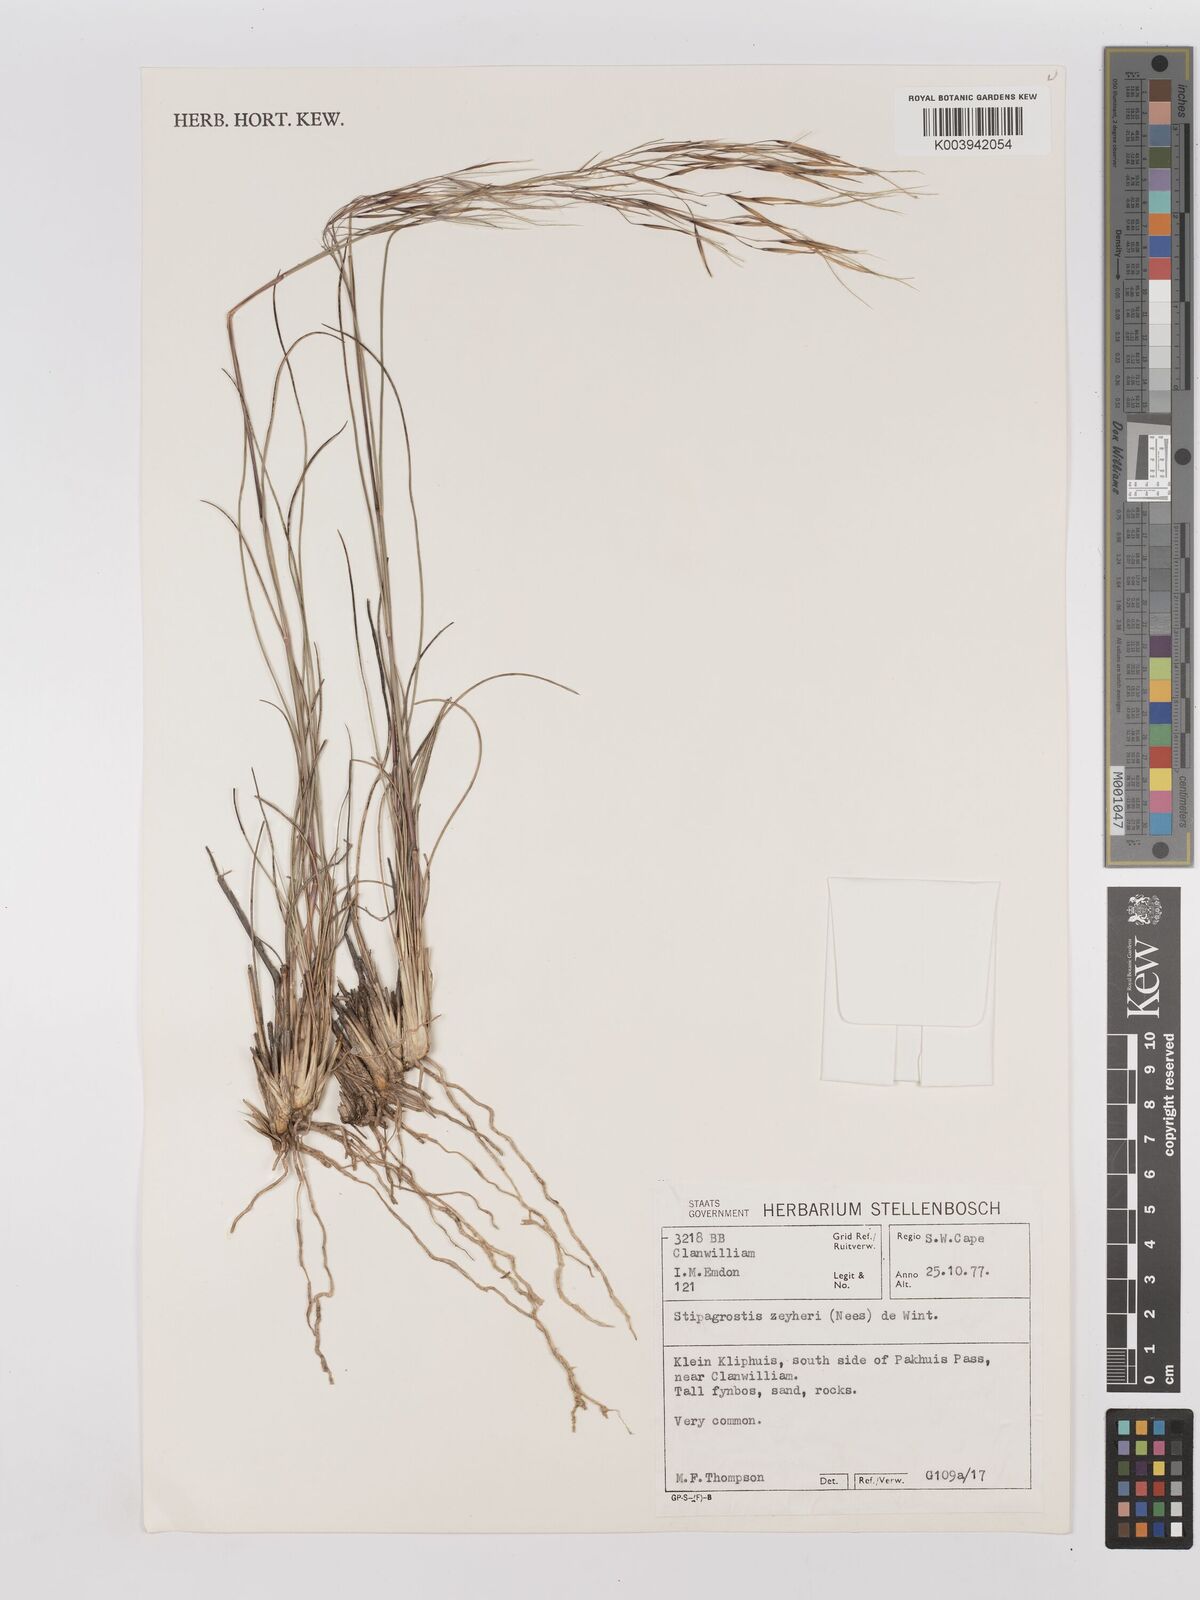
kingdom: Plantae
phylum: Tracheophyta
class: Liliopsida
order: Poales
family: Poaceae
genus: Stipagrostis
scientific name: Stipagrostis zeyheri
